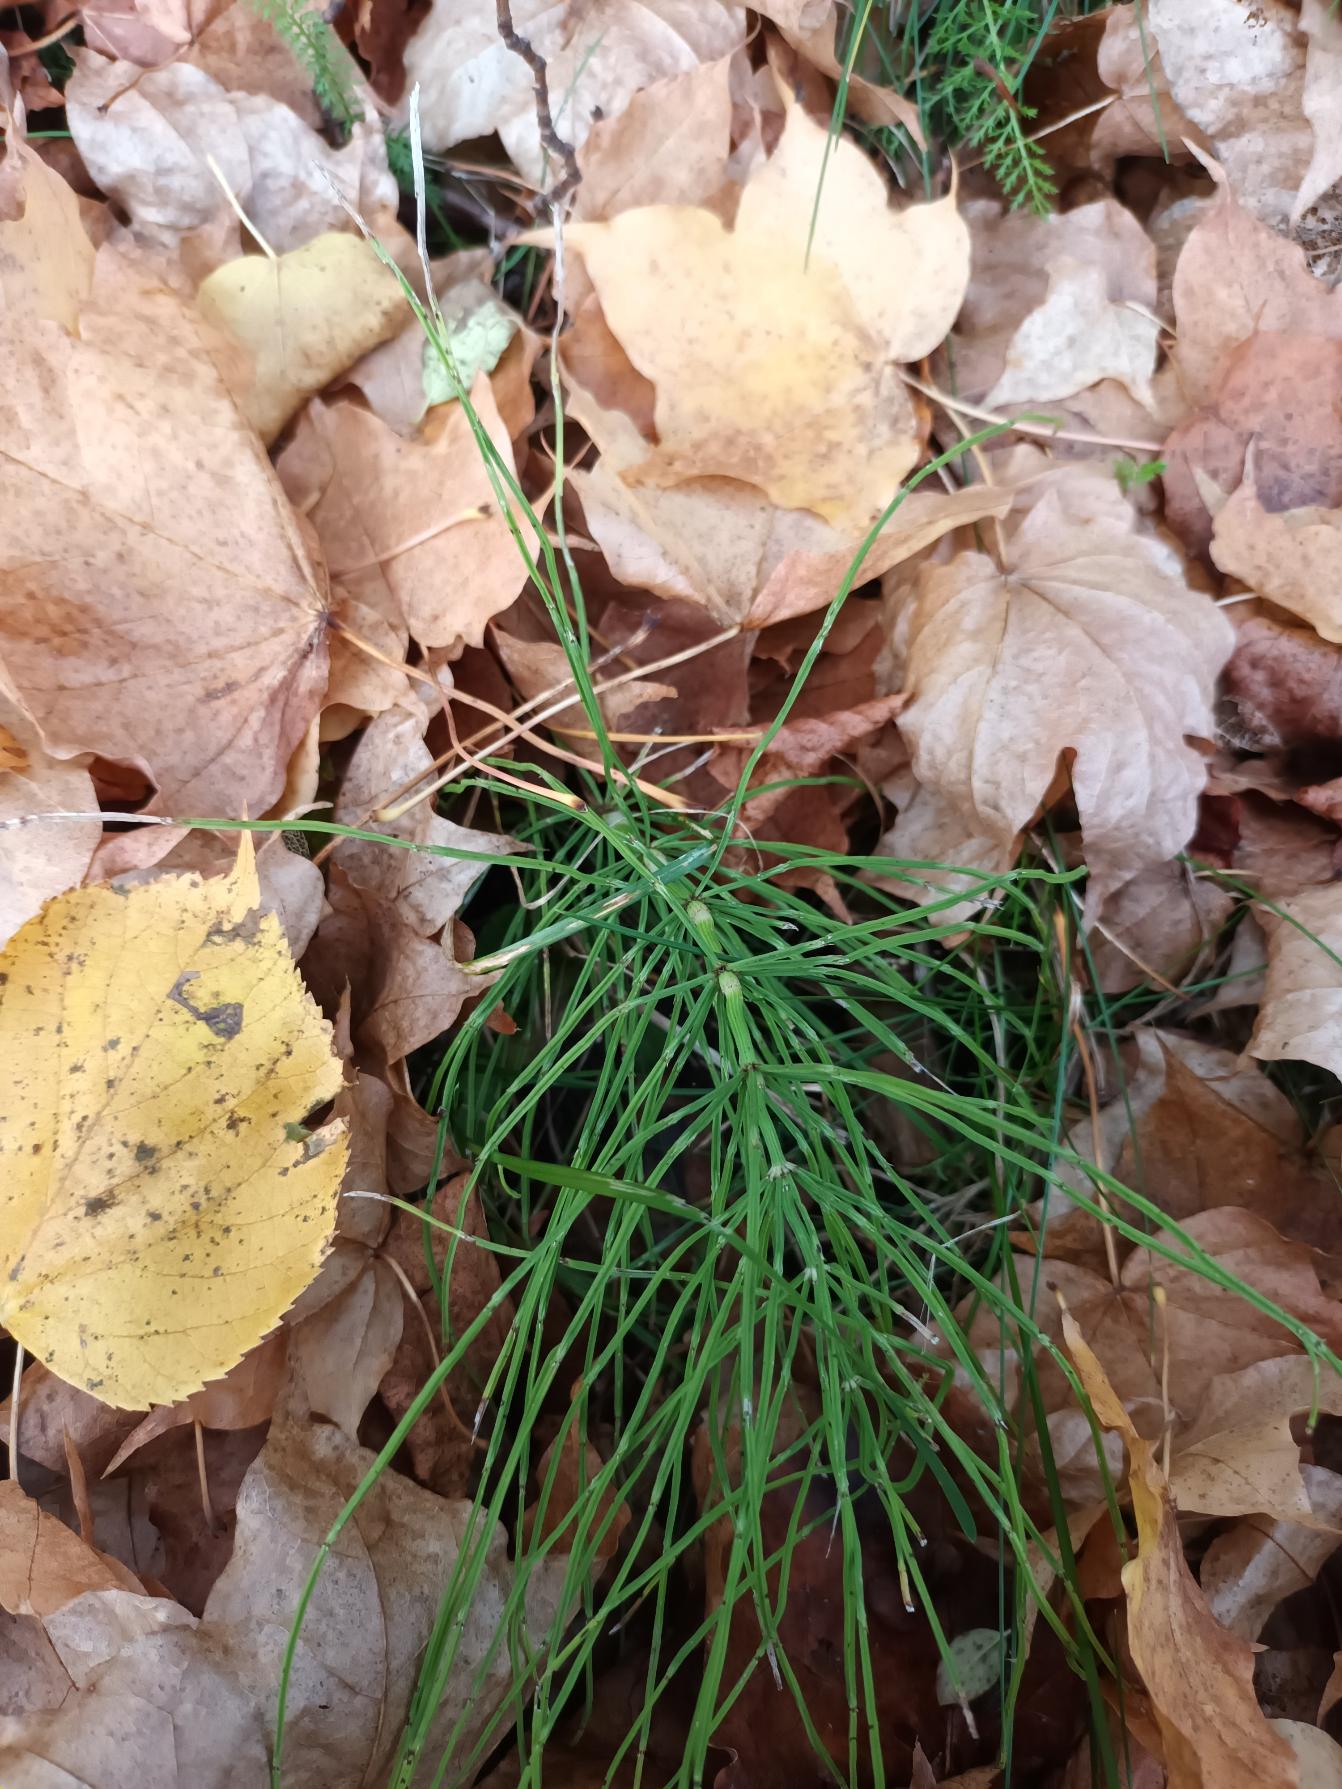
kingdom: Plantae
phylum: Tracheophyta
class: Polypodiopsida
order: Equisetales
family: Equisetaceae
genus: Equisetum
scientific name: Equisetum arvense
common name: Ager-padderok
